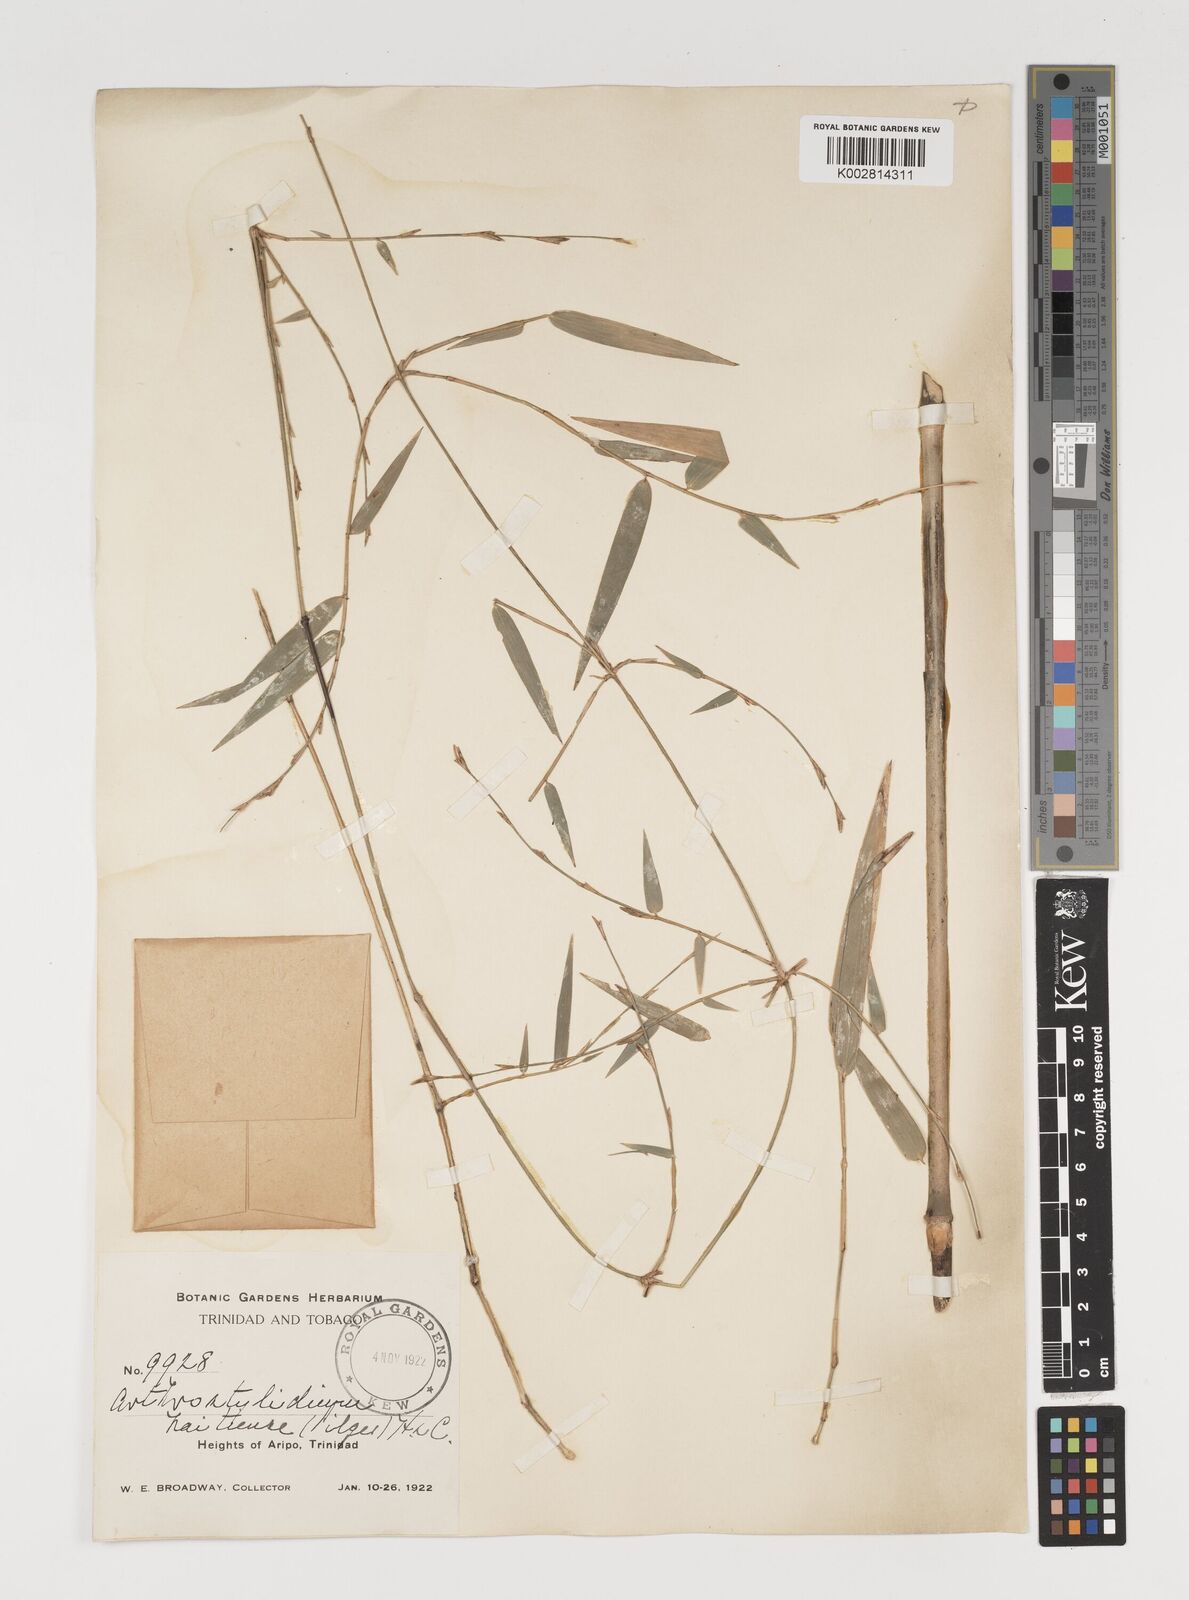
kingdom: Plantae
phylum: Tracheophyta
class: Liliopsida
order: Poales
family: Poaceae
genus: Arthrostylidium
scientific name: Arthrostylidium
